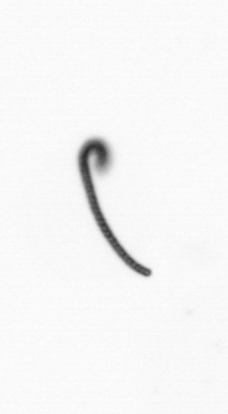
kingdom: Chromista
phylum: Ochrophyta
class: Bacillariophyceae
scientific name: Bacillariophyceae
